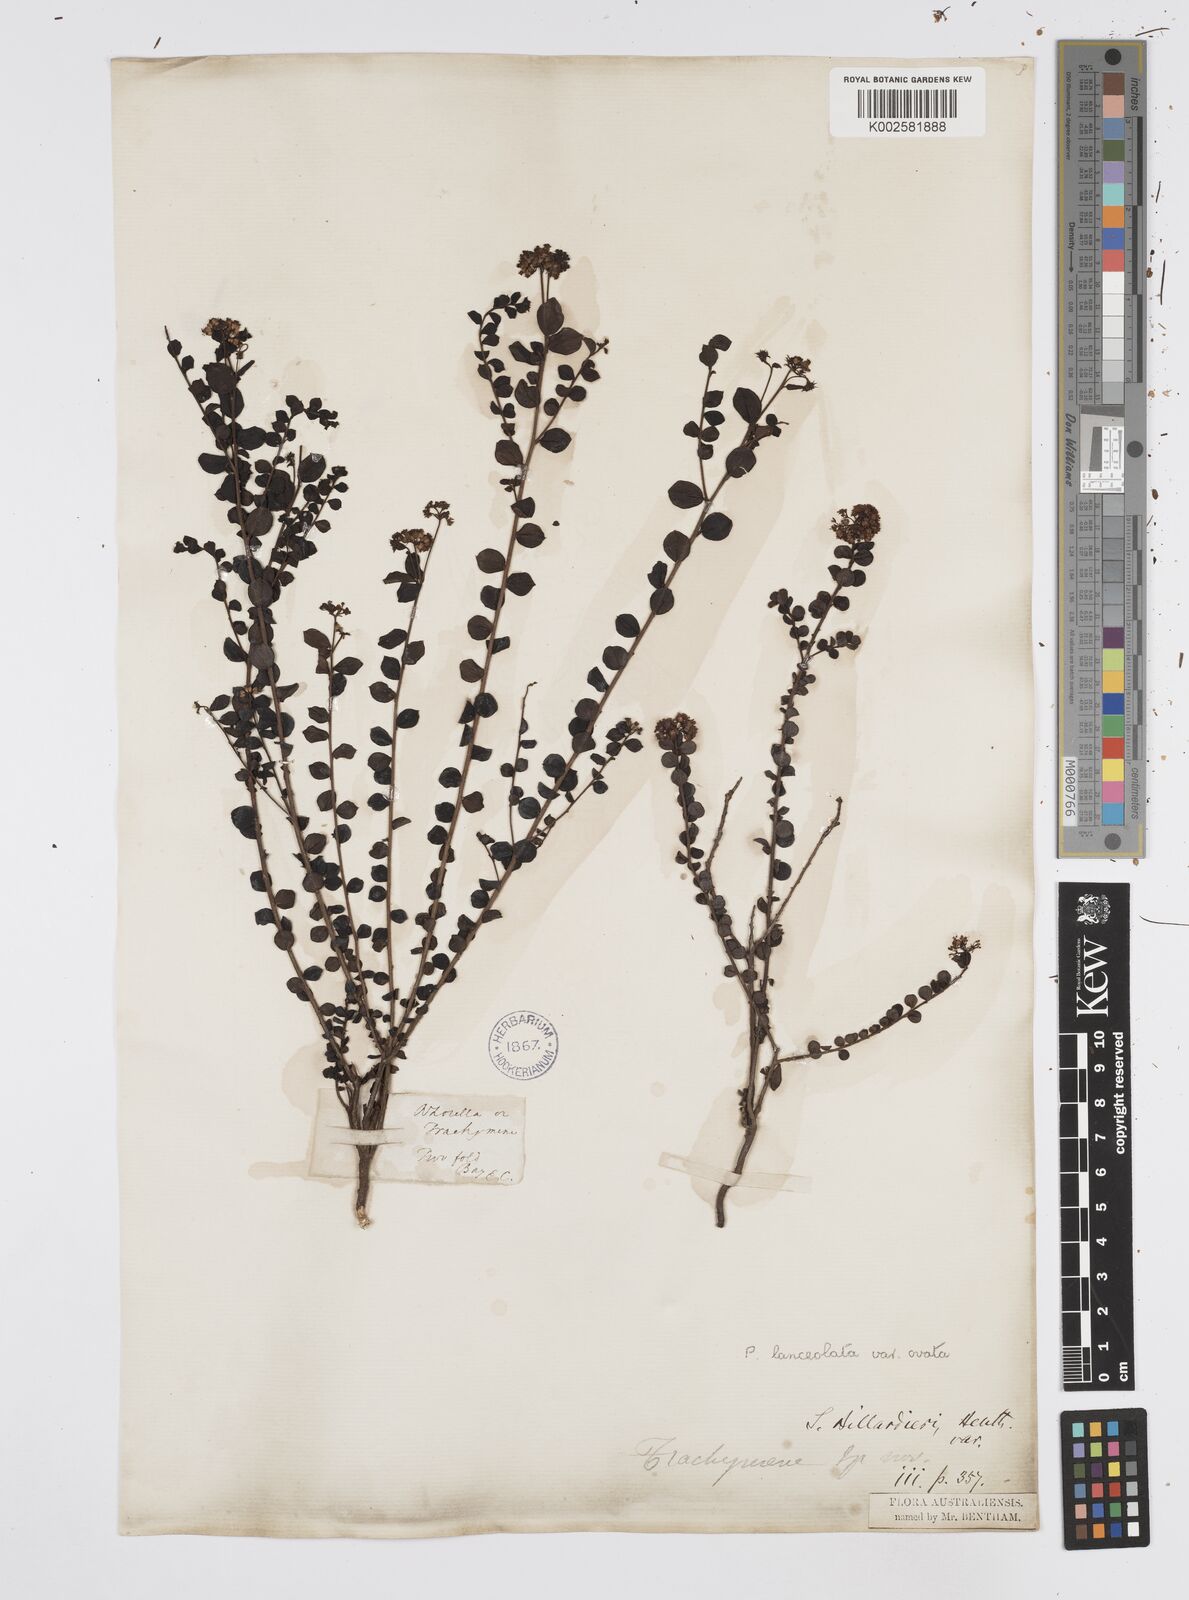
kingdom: Plantae
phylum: Tracheophyta
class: Magnoliopsida
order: Apiales
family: Apiaceae
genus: Platysace
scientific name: Platysace lanceolata
